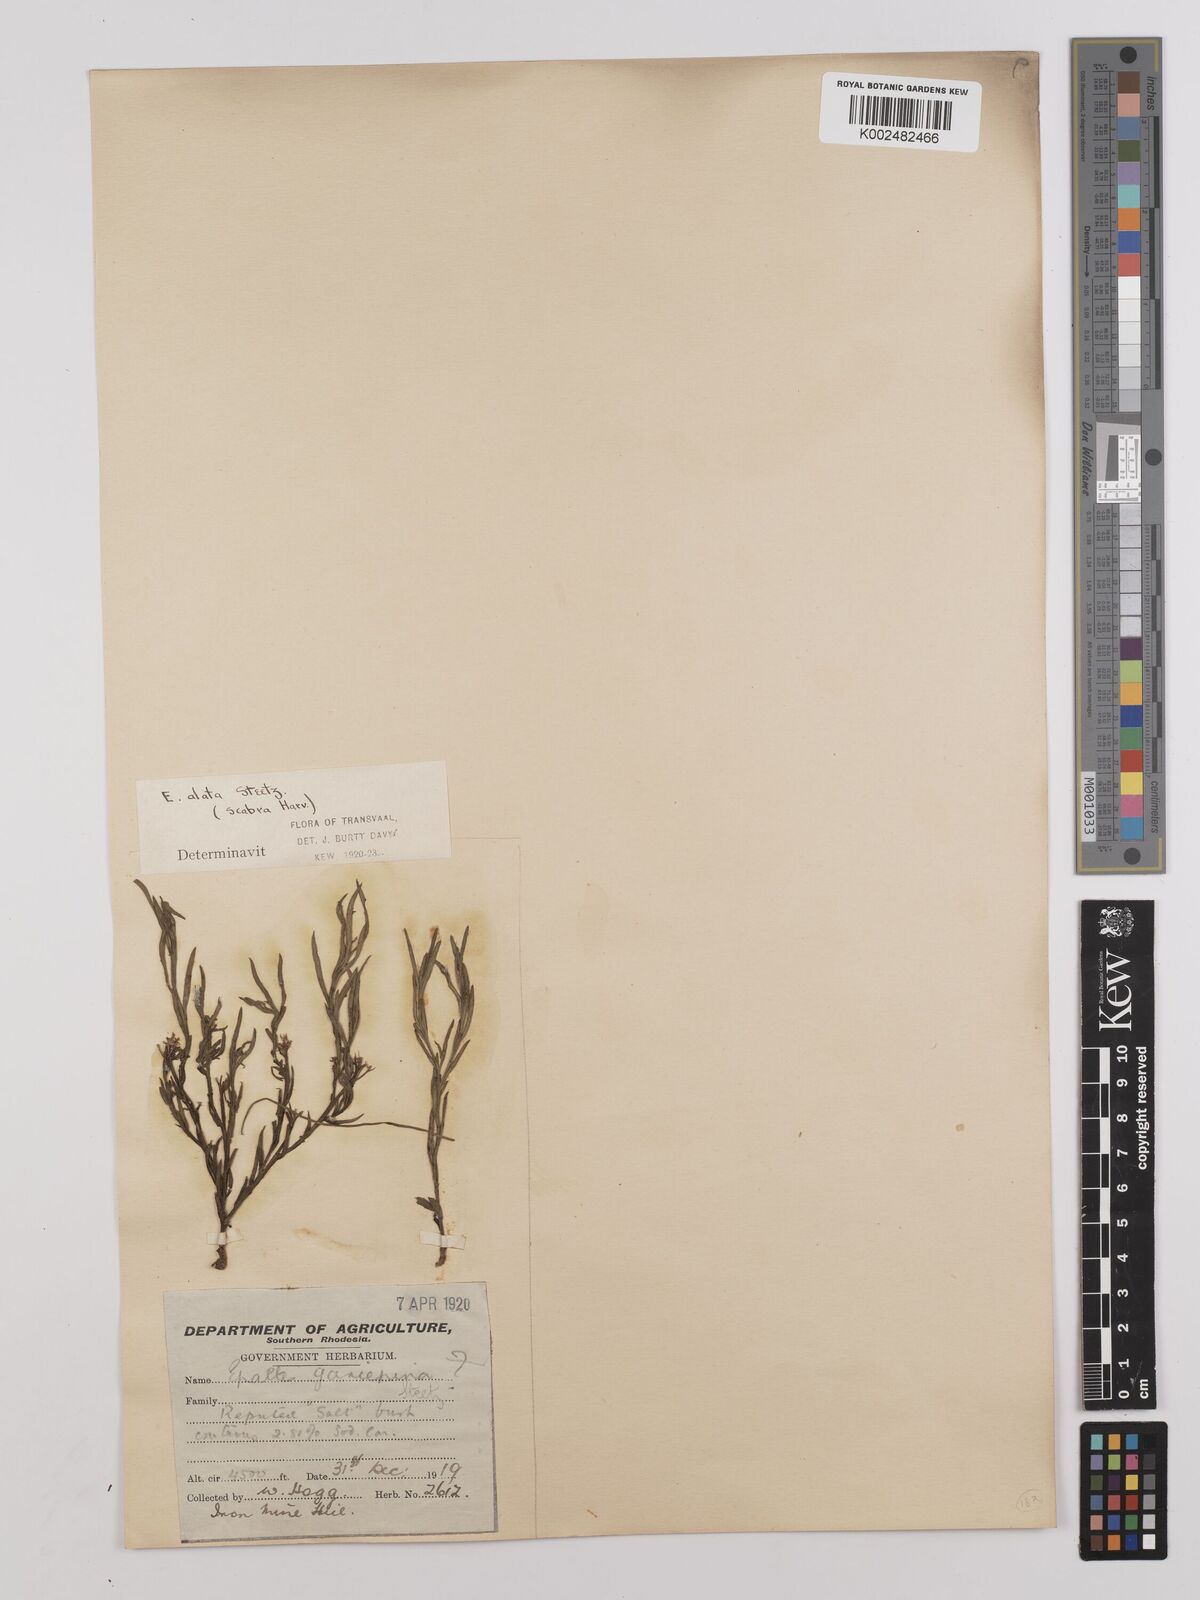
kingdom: Plantae
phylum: Tracheophyta
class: Magnoliopsida
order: Asterales
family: Asteraceae
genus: Litogyne
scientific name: Litogyne gariepina
